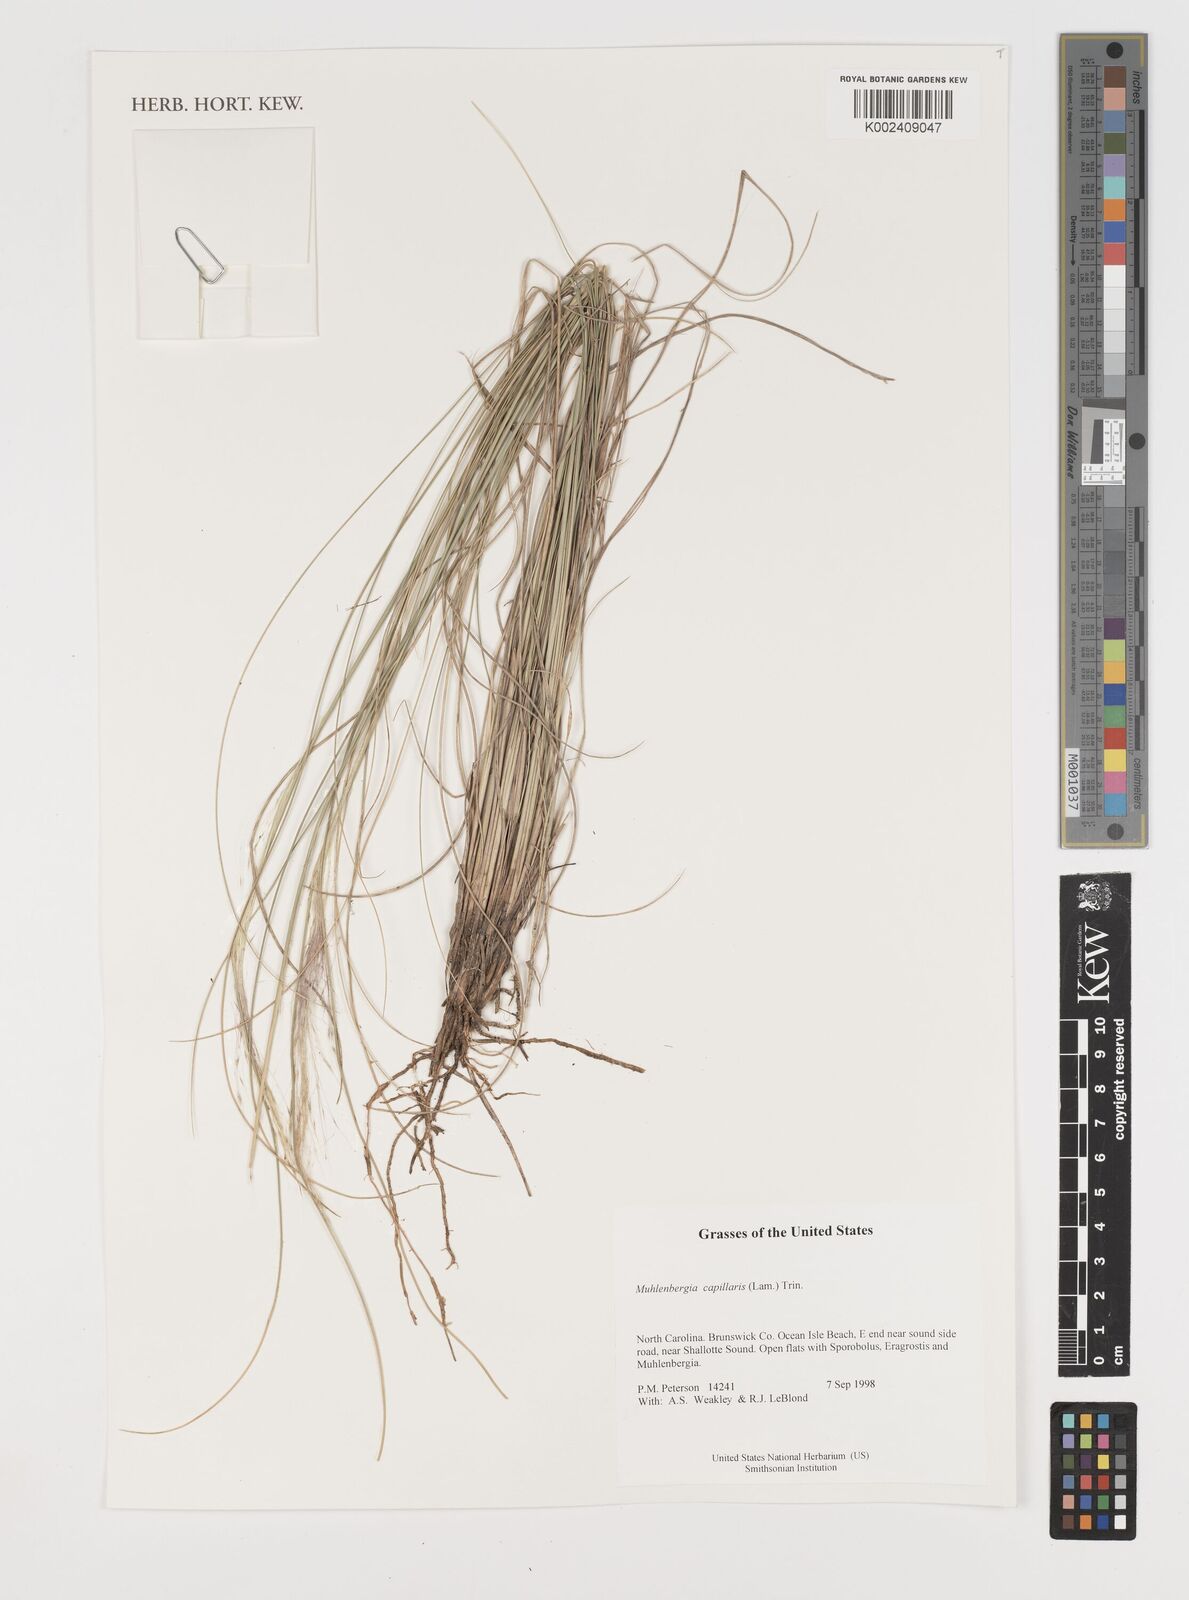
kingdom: Plantae
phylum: Tracheophyta
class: Liliopsida
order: Poales
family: Poaceae
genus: Muhlenbergia
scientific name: Muhlenbergia capillaris
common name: Purple grass
